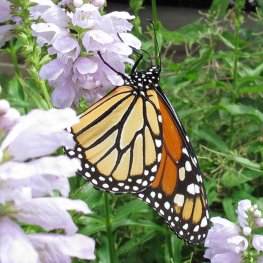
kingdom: Animalia
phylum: Arthropoda
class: Insecta
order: Lepidoptera
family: Nymphalidae
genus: Danaus
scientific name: Danaus plexippus
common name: Monarch
